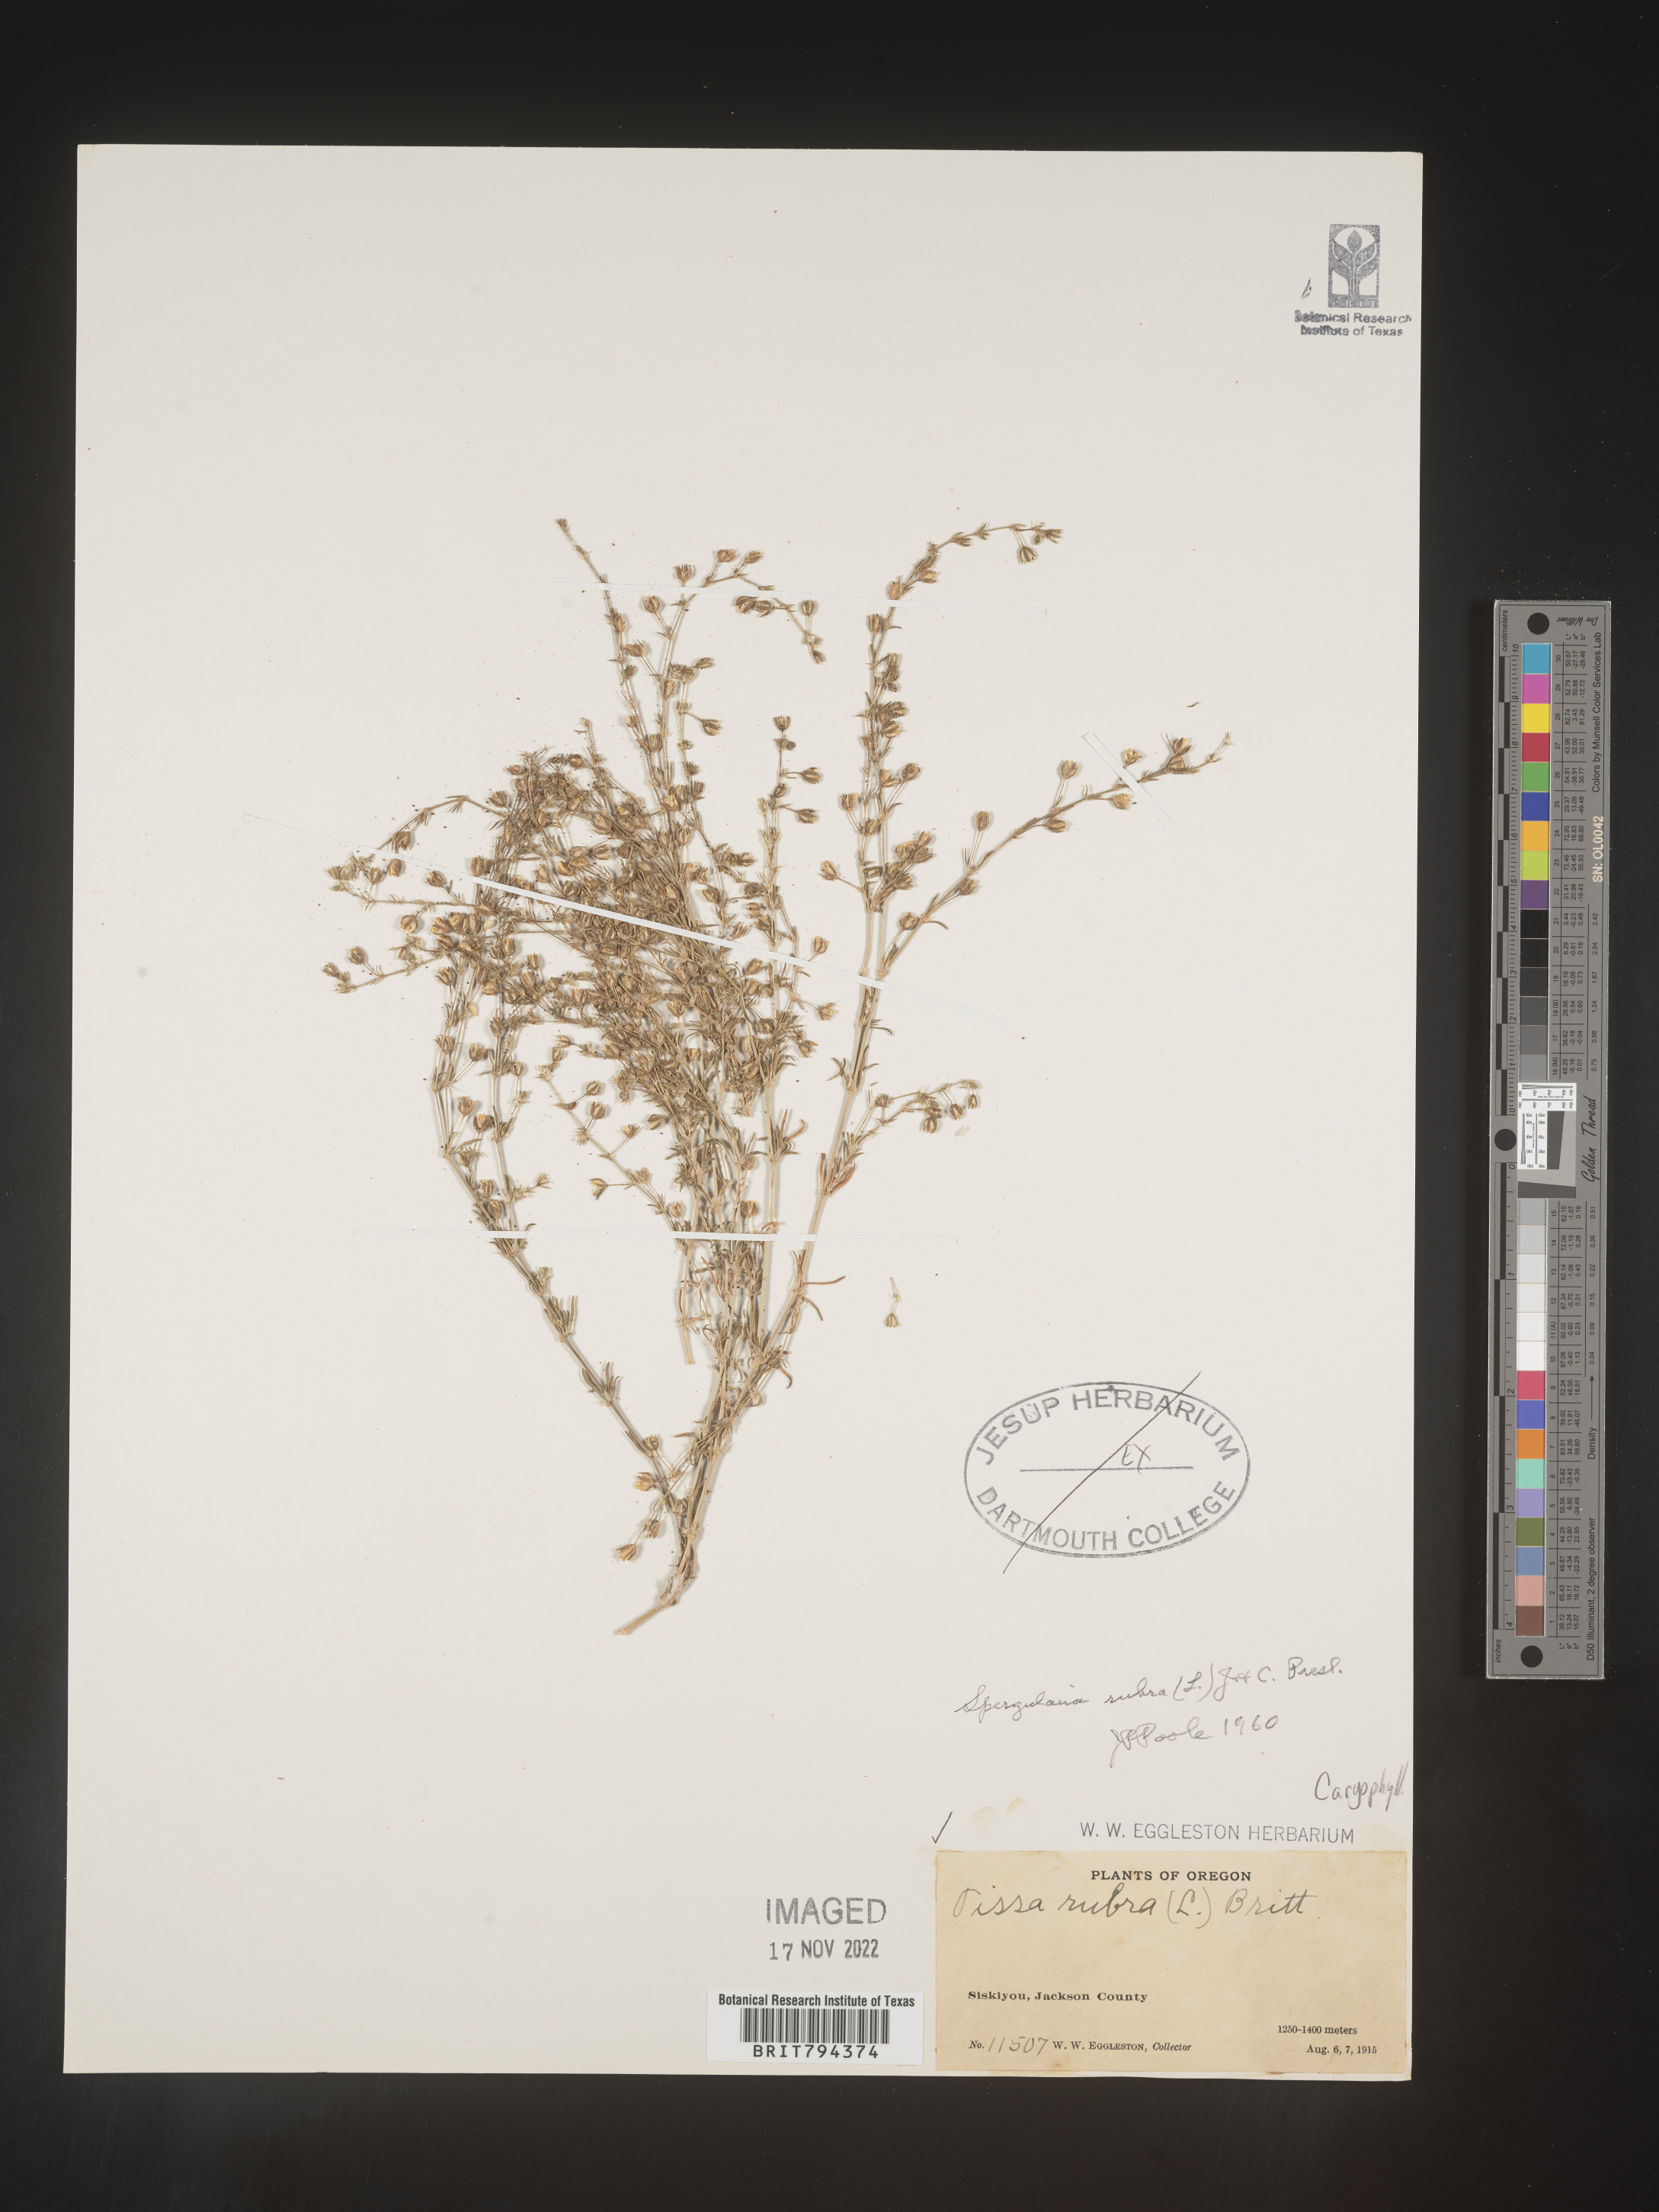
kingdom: Plantae
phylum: Tracheophyta
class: Magnoliopsida
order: Caryophyllales
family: Caryophyllaceae
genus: Spergularia
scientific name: Spergularia rubra
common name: Red sand-spurrey
